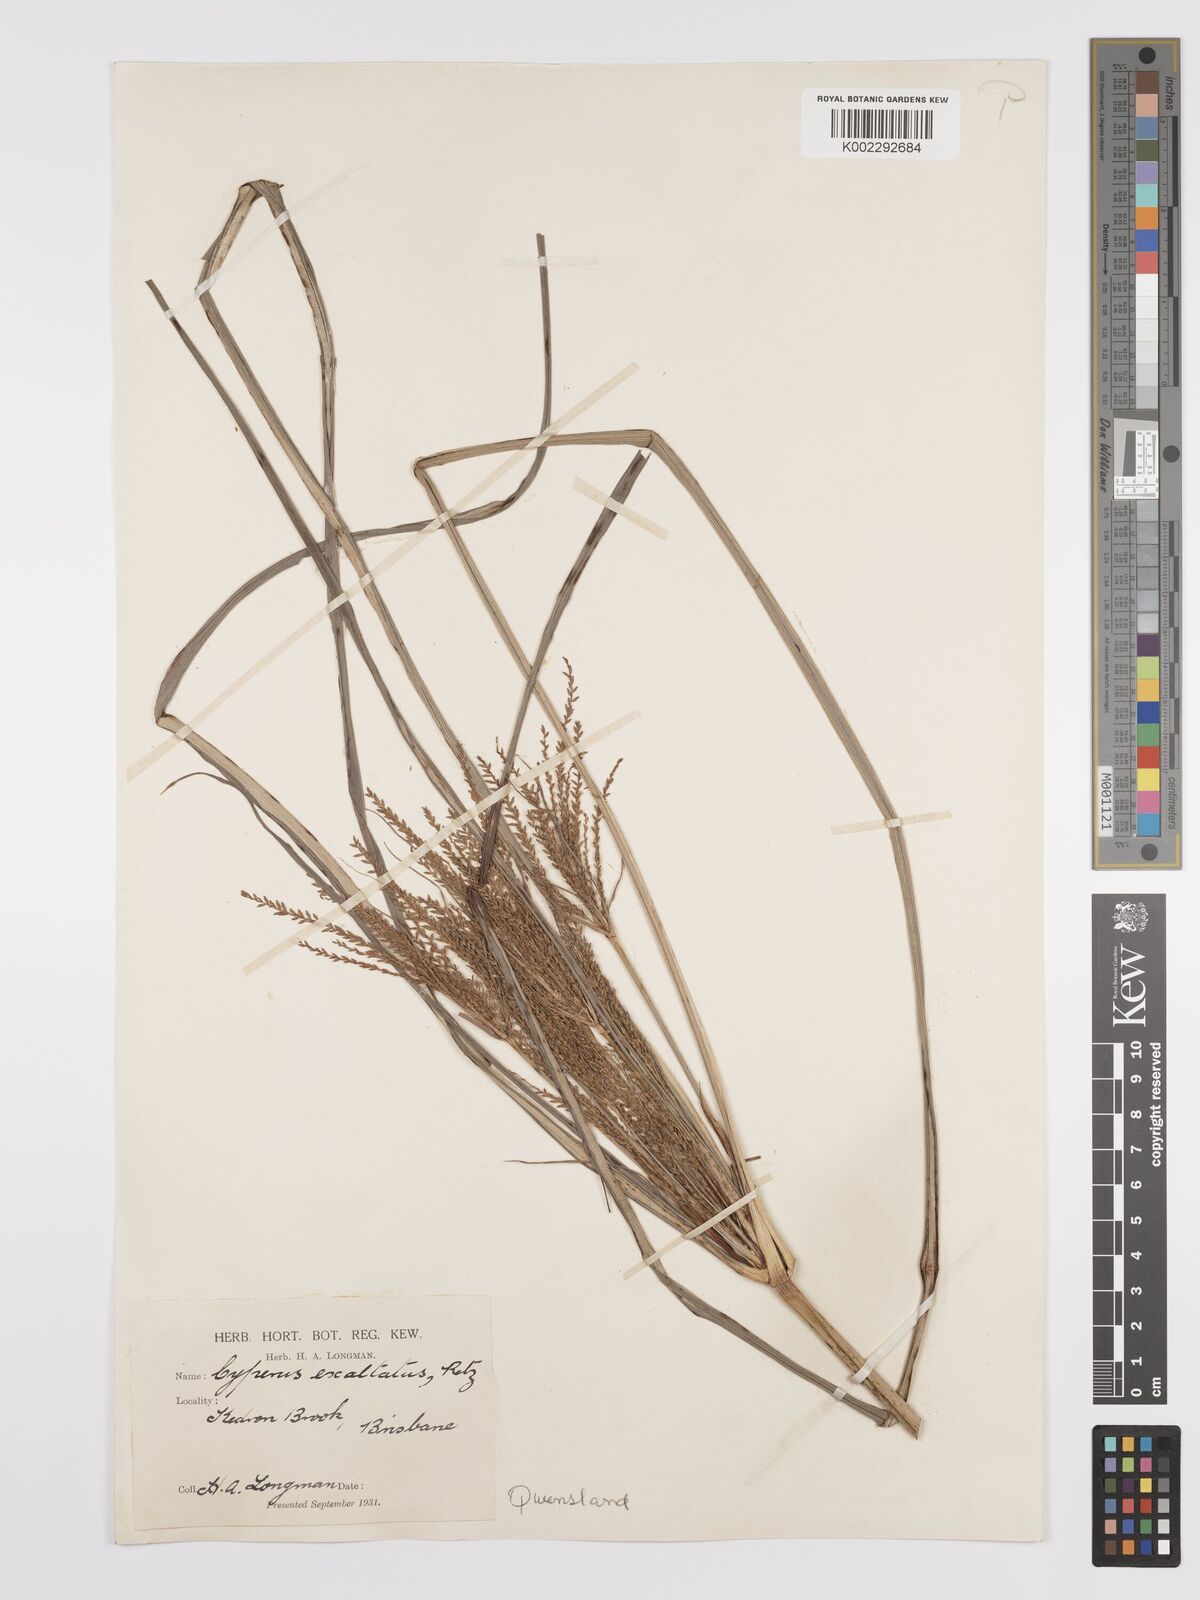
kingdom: Plantae
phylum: Tracheophyta
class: Liliopsida
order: Poales
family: Cyperaceae
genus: Cyperus
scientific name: Cyperus exaltatus
